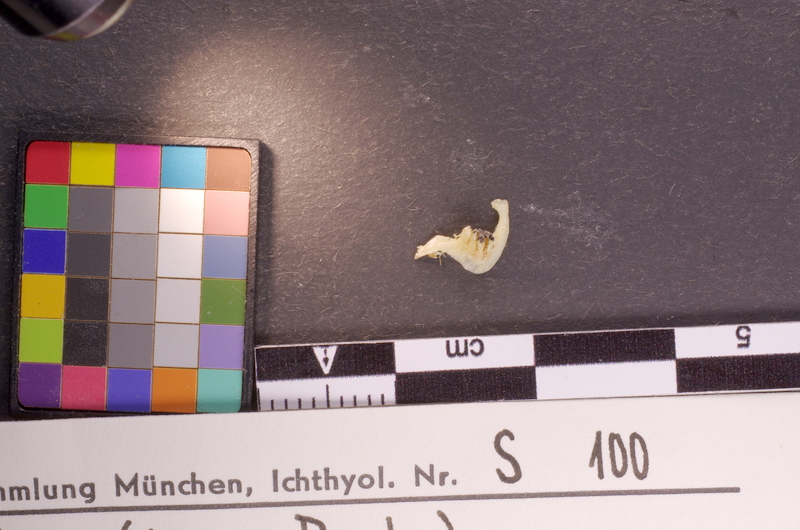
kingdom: Animalia
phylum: Chordata
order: Cypriniformes
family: Cyprinidae
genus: Puntius
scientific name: Puntius sophore
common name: Pool barb
